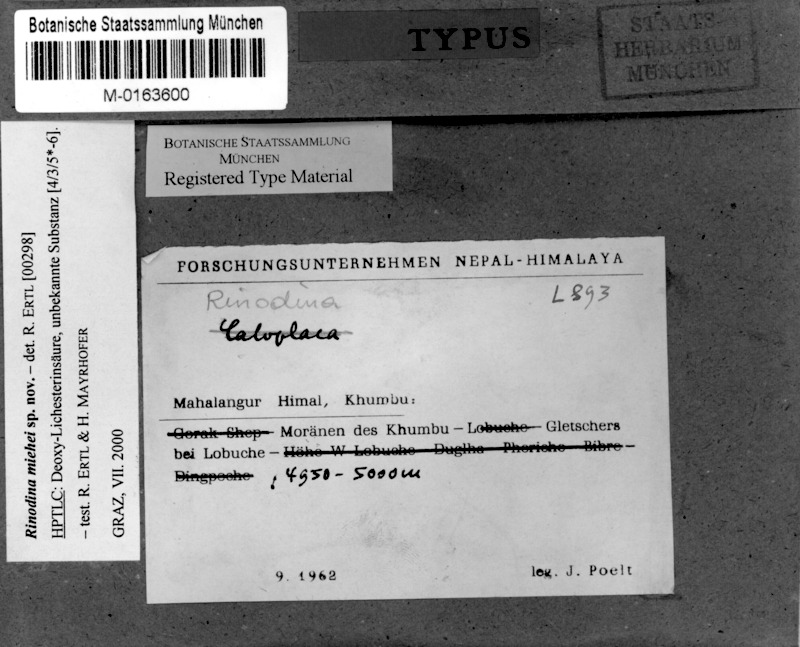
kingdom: Fungi
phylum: Ascomycota
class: Lecanoromycetes
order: Caliciales
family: Physciaceae
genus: Rinodina
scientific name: Rinodina
